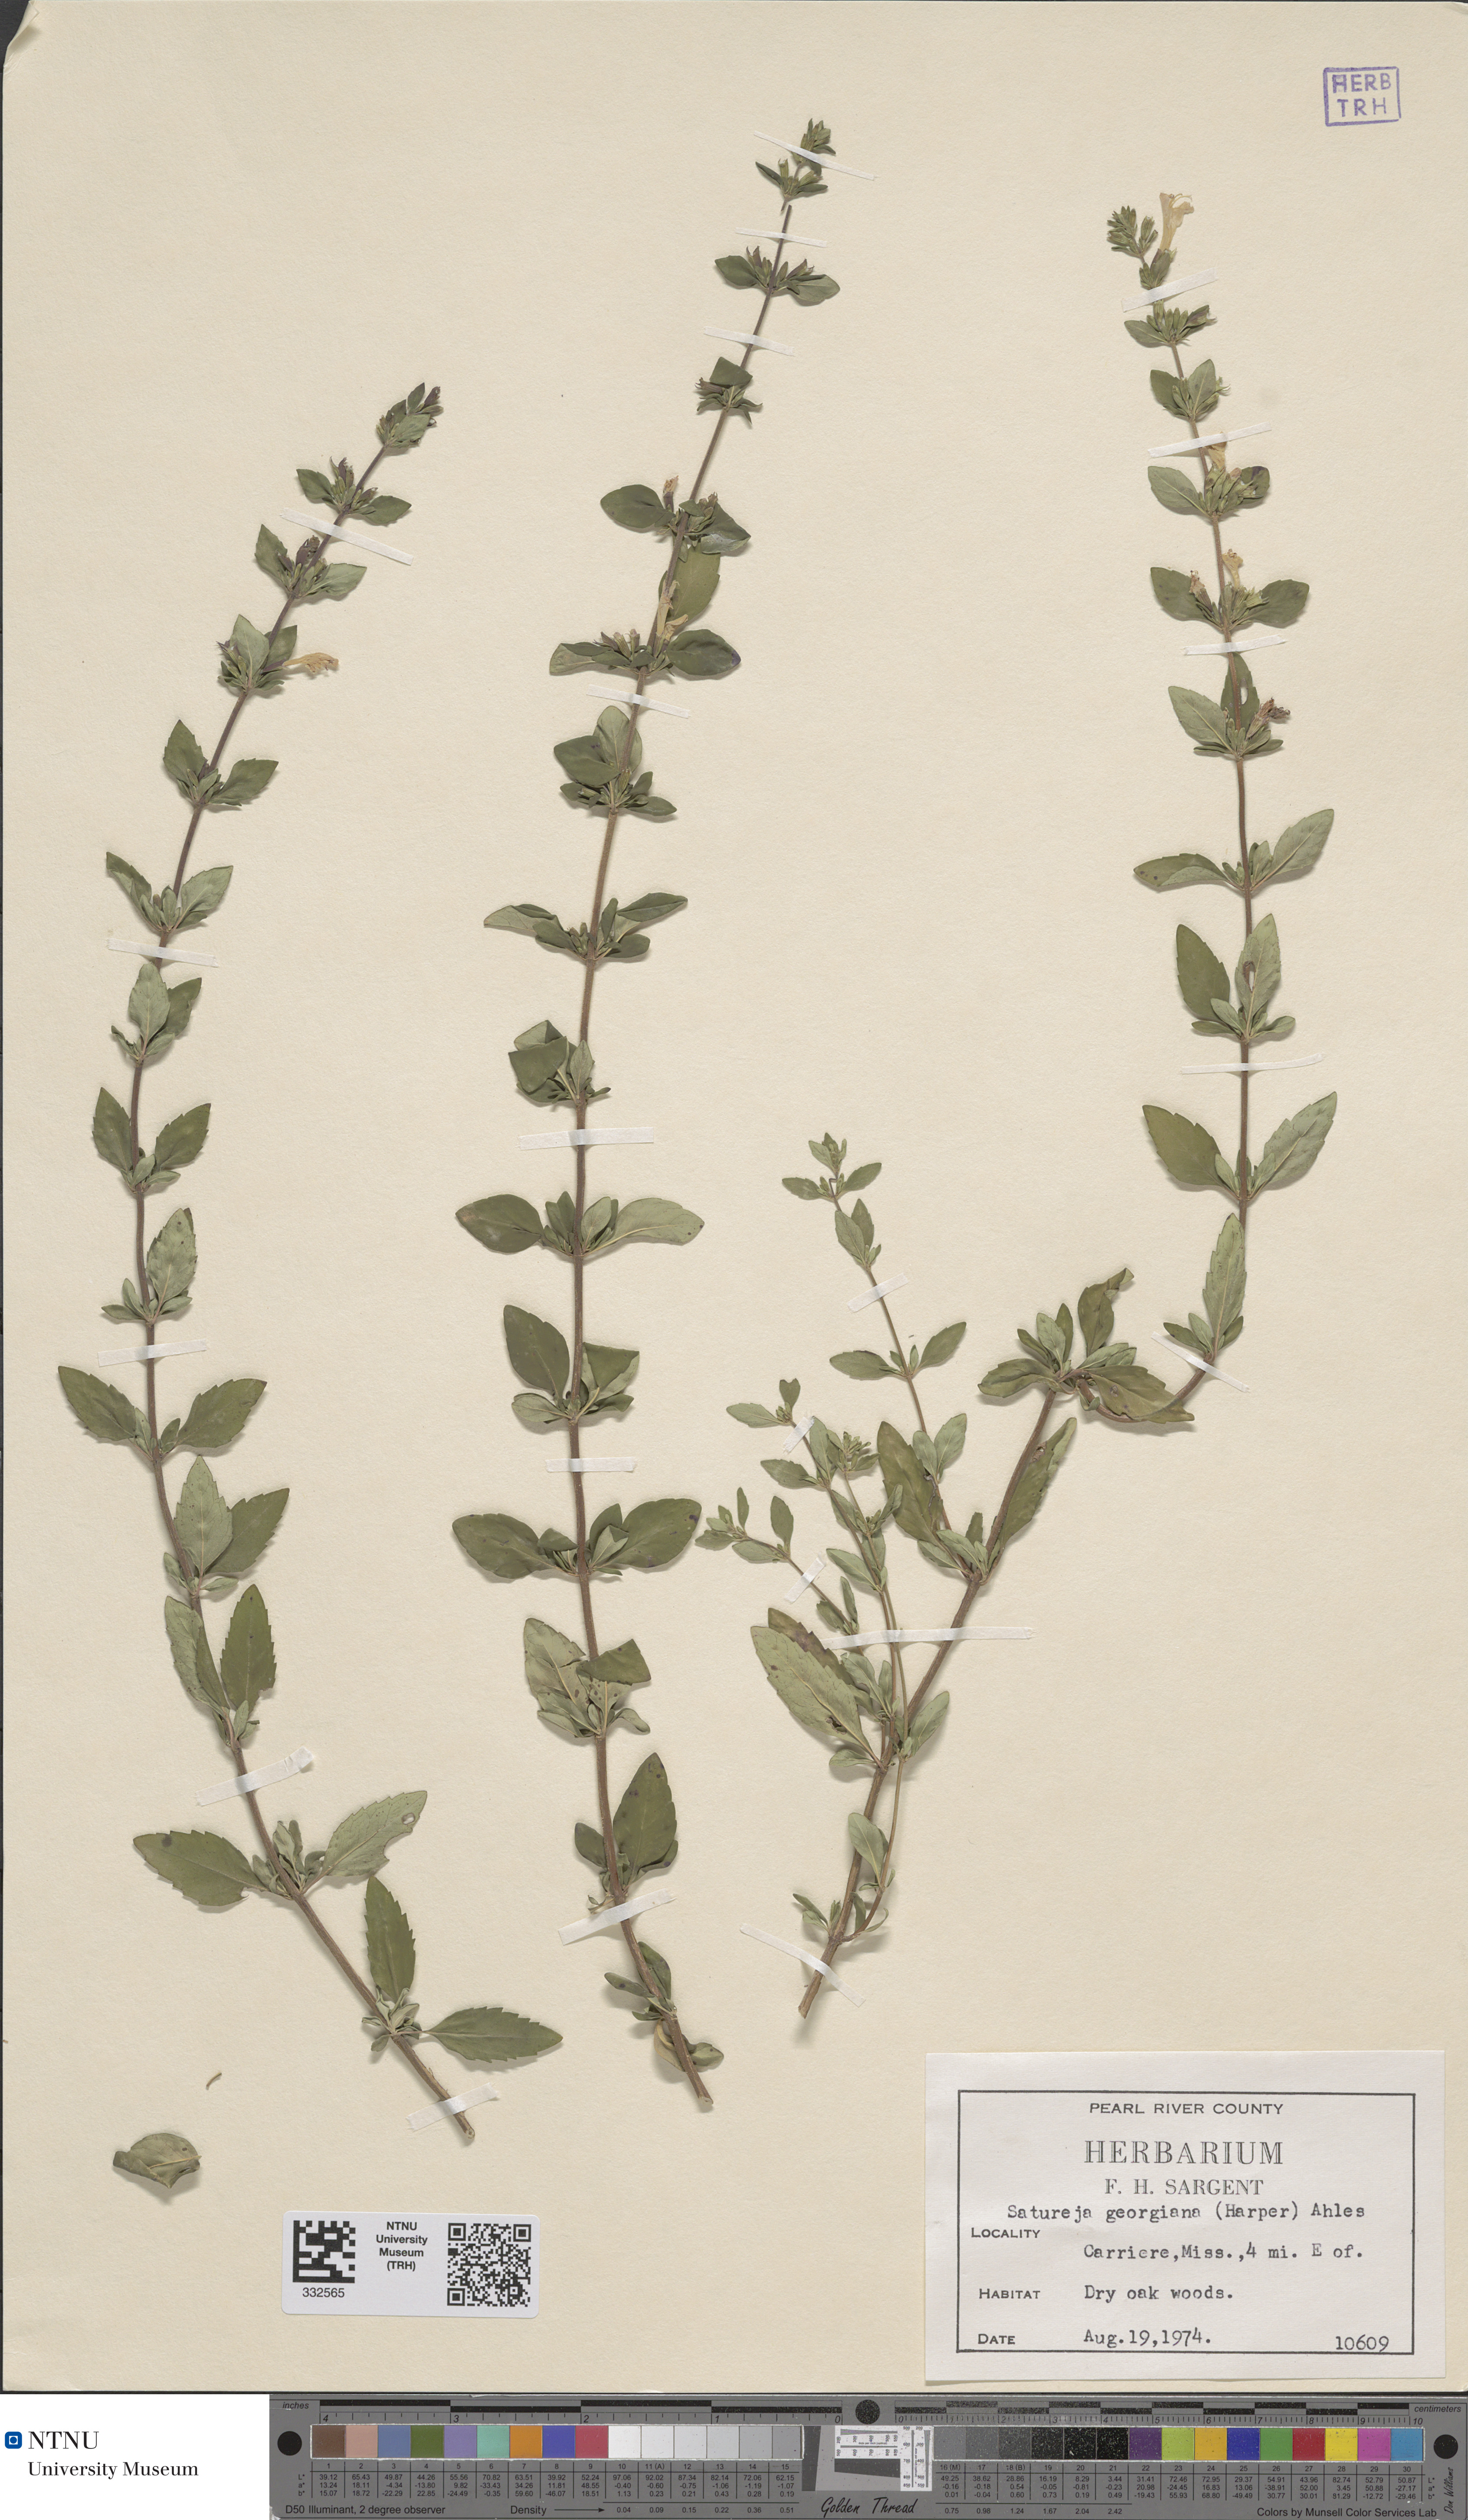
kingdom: Plantae
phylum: Tracheophyta
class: Magnoliopsida
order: Lamiales
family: Lamiaceae
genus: Clinopodium
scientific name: Clinopodium carolinianum
